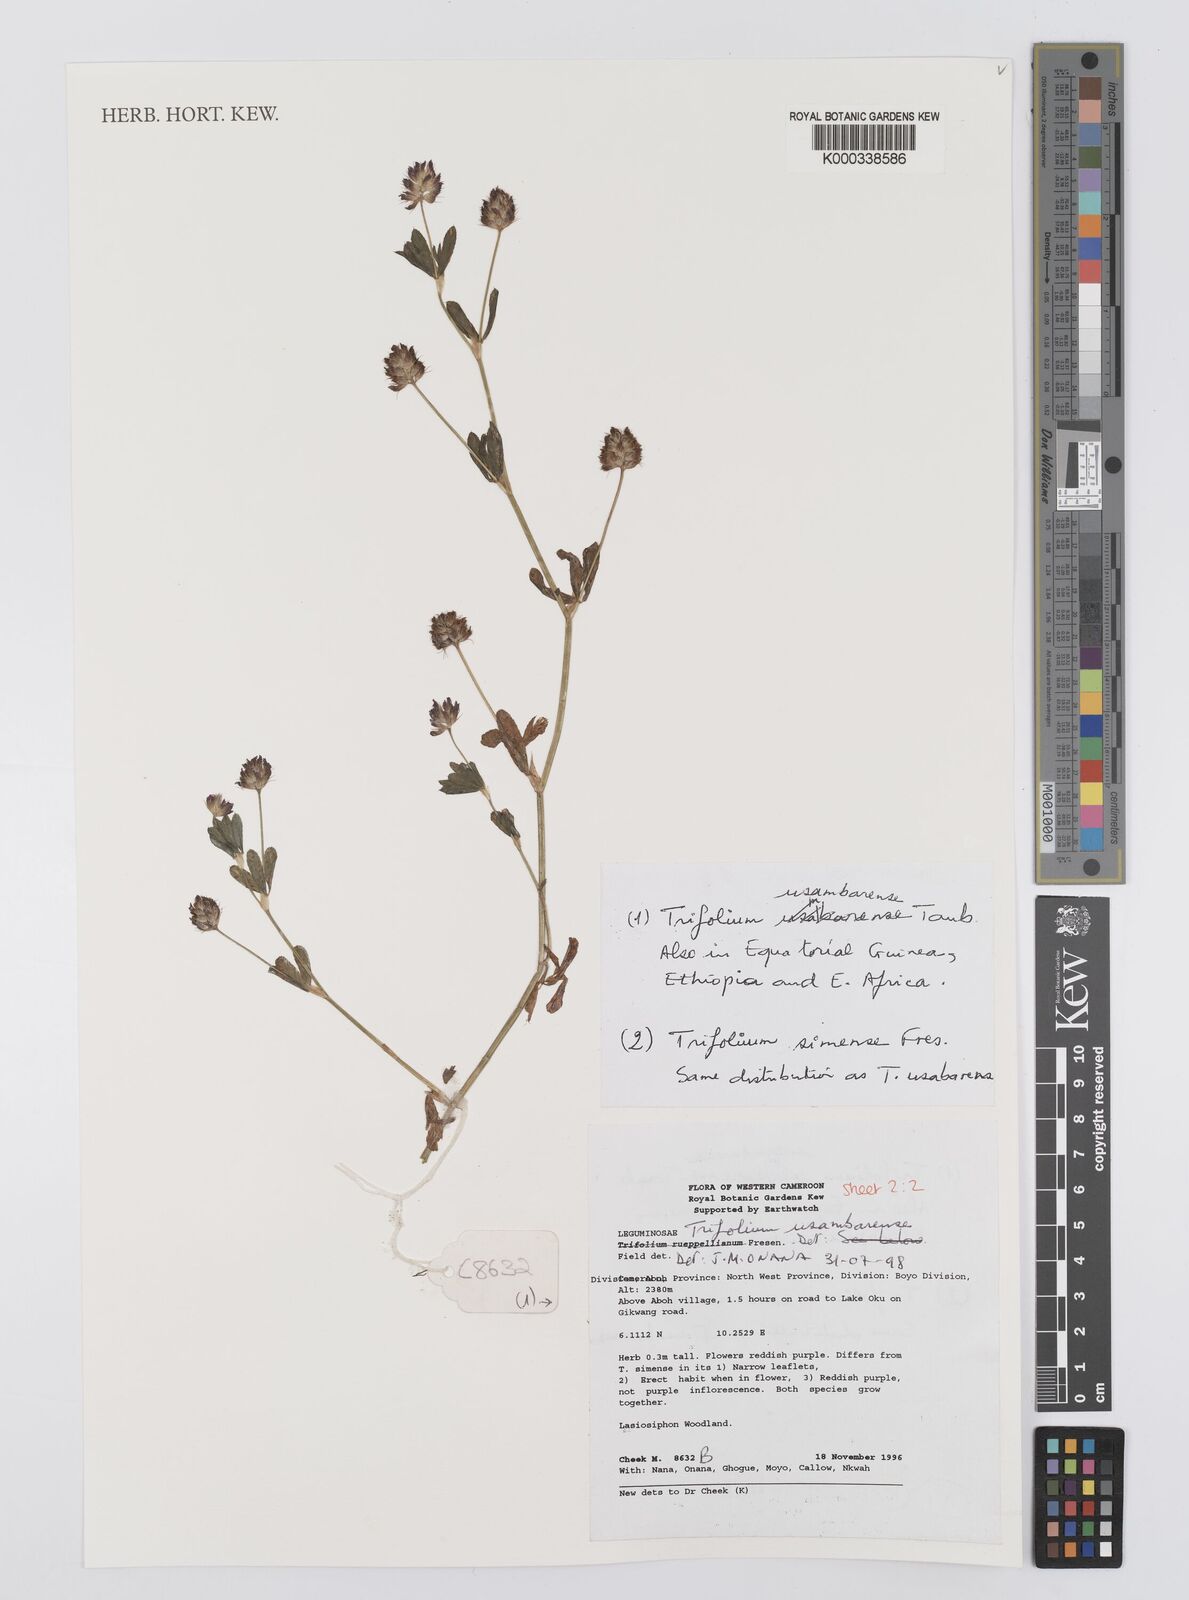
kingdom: Plantae
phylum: Tracheophyta
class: Magnoliopsida
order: Fabales
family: Fabaceae
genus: Trifolium
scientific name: Trifolium usambarense
